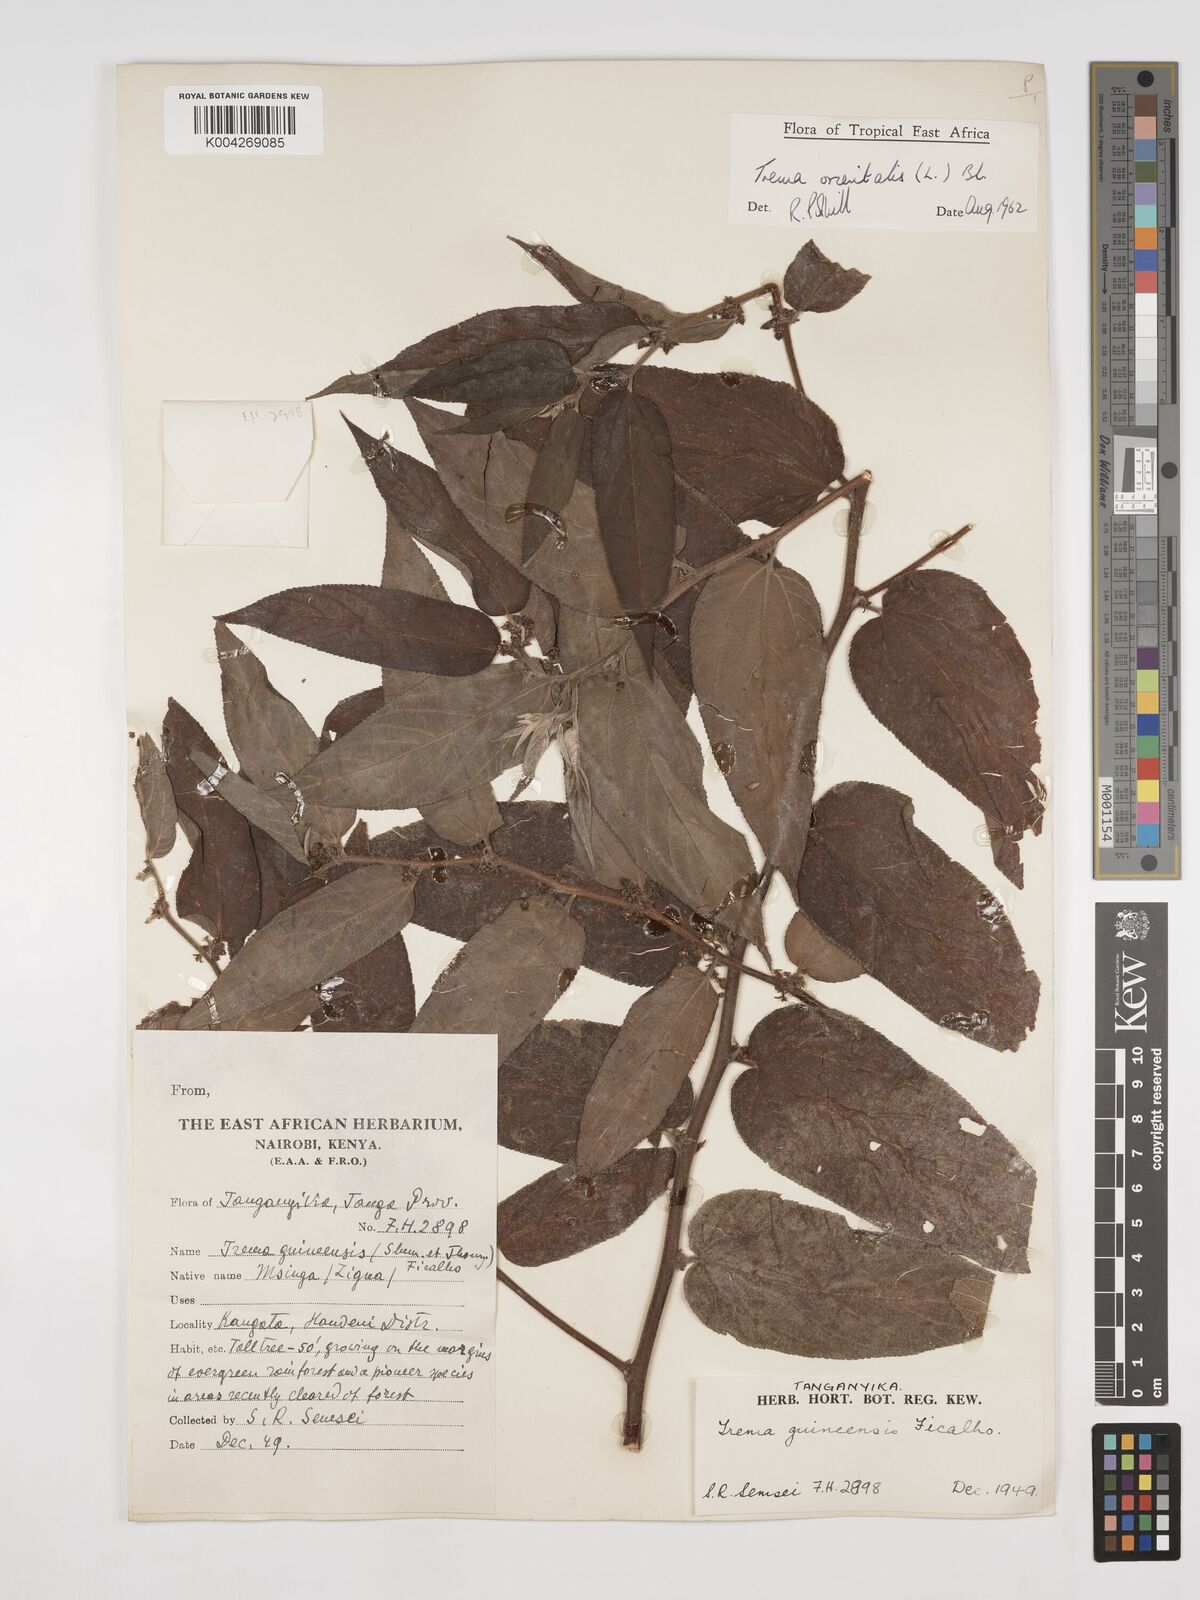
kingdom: Plantae
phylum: Tracheophyta
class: Magnoliopsida
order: Rosales
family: Cannabaceae
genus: Trema
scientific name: Trema orientale
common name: Indian charcoal tree
